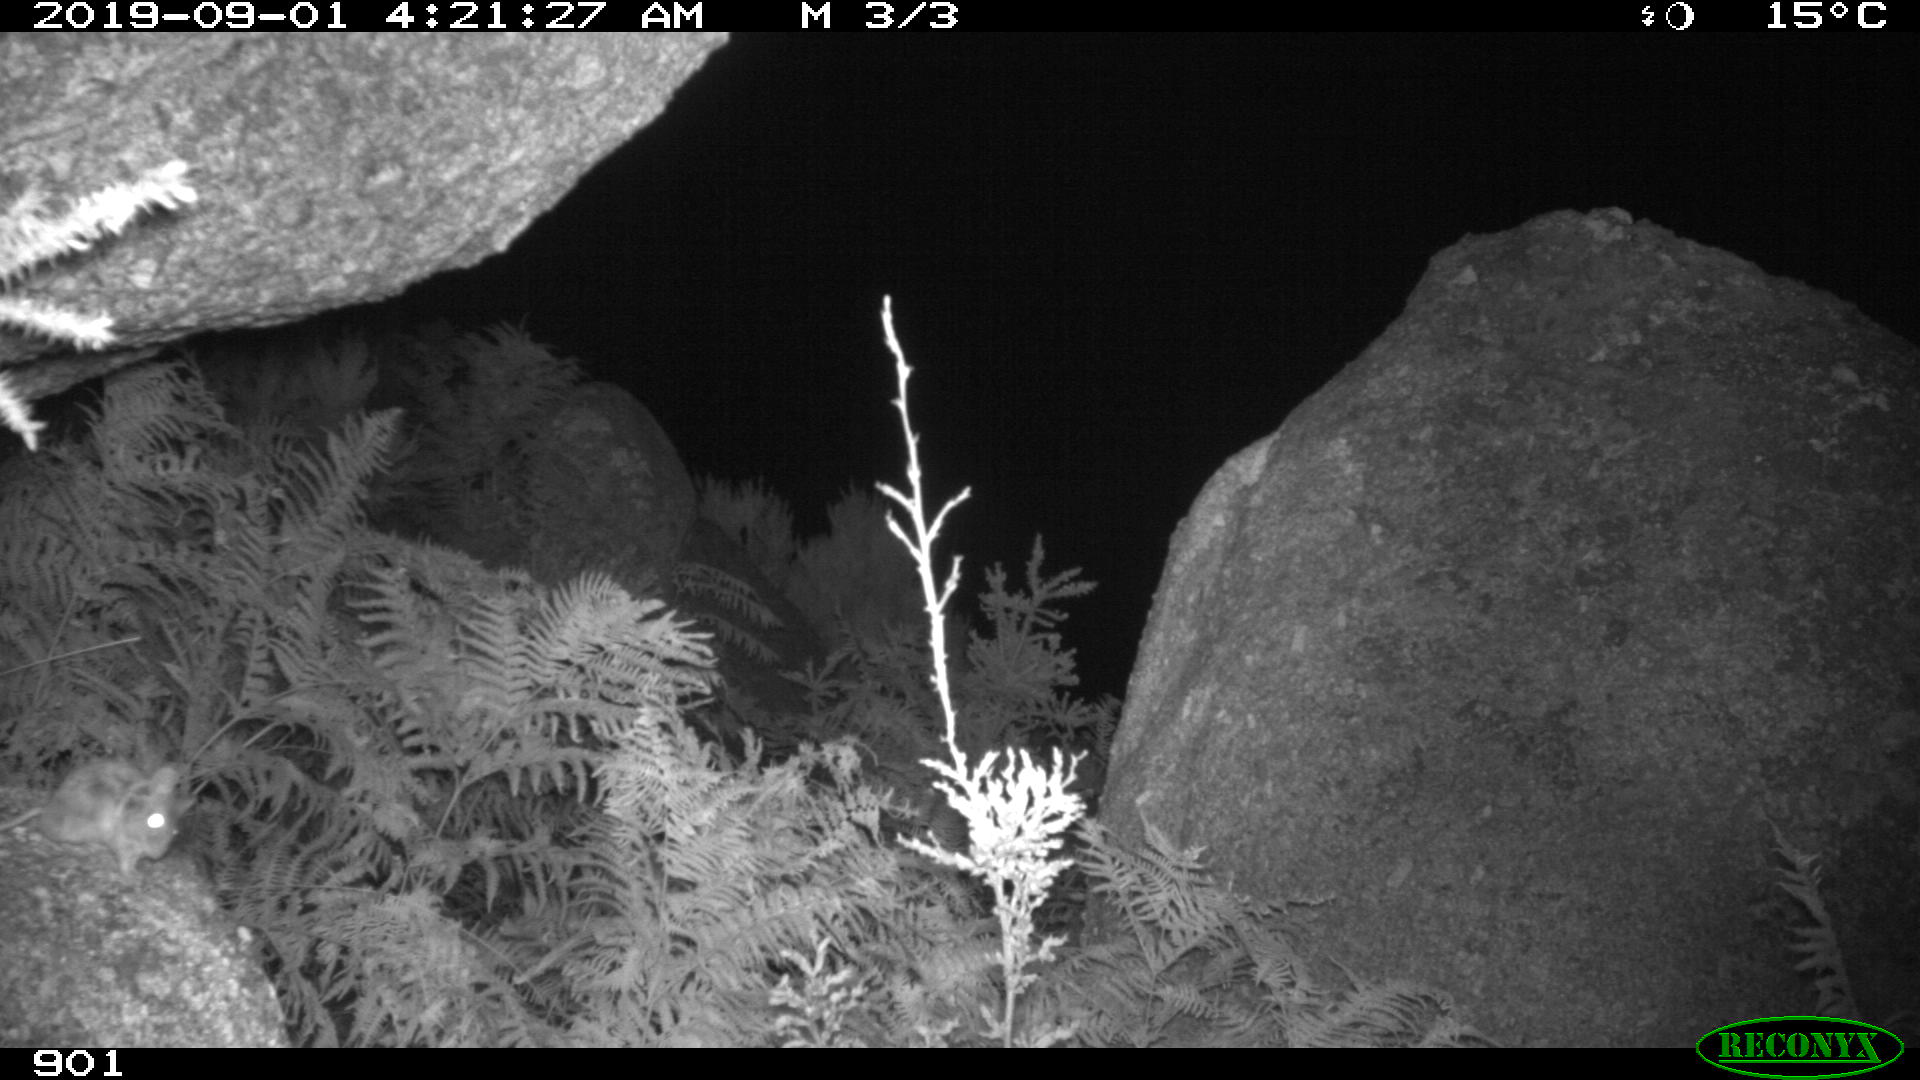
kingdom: Animalia
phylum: Chordata
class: Mammalia
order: Rodentia
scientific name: Rodentia
